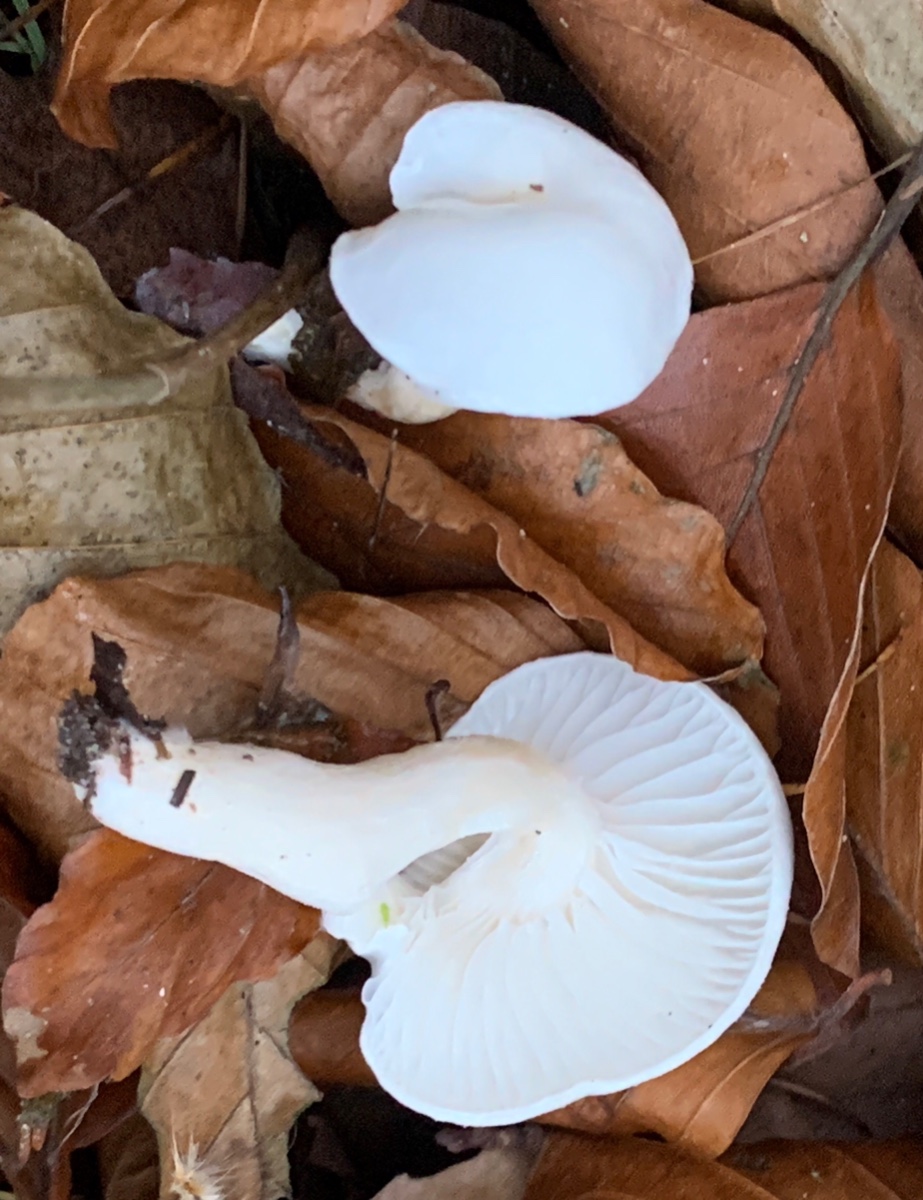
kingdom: Fungi
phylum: Basidiomycota
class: Agaricomycetes
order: Agaricales
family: Hygrophoraceae
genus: Hygrophorus
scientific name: Hygrophorus eburneus
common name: elfenbens-sneglehat
